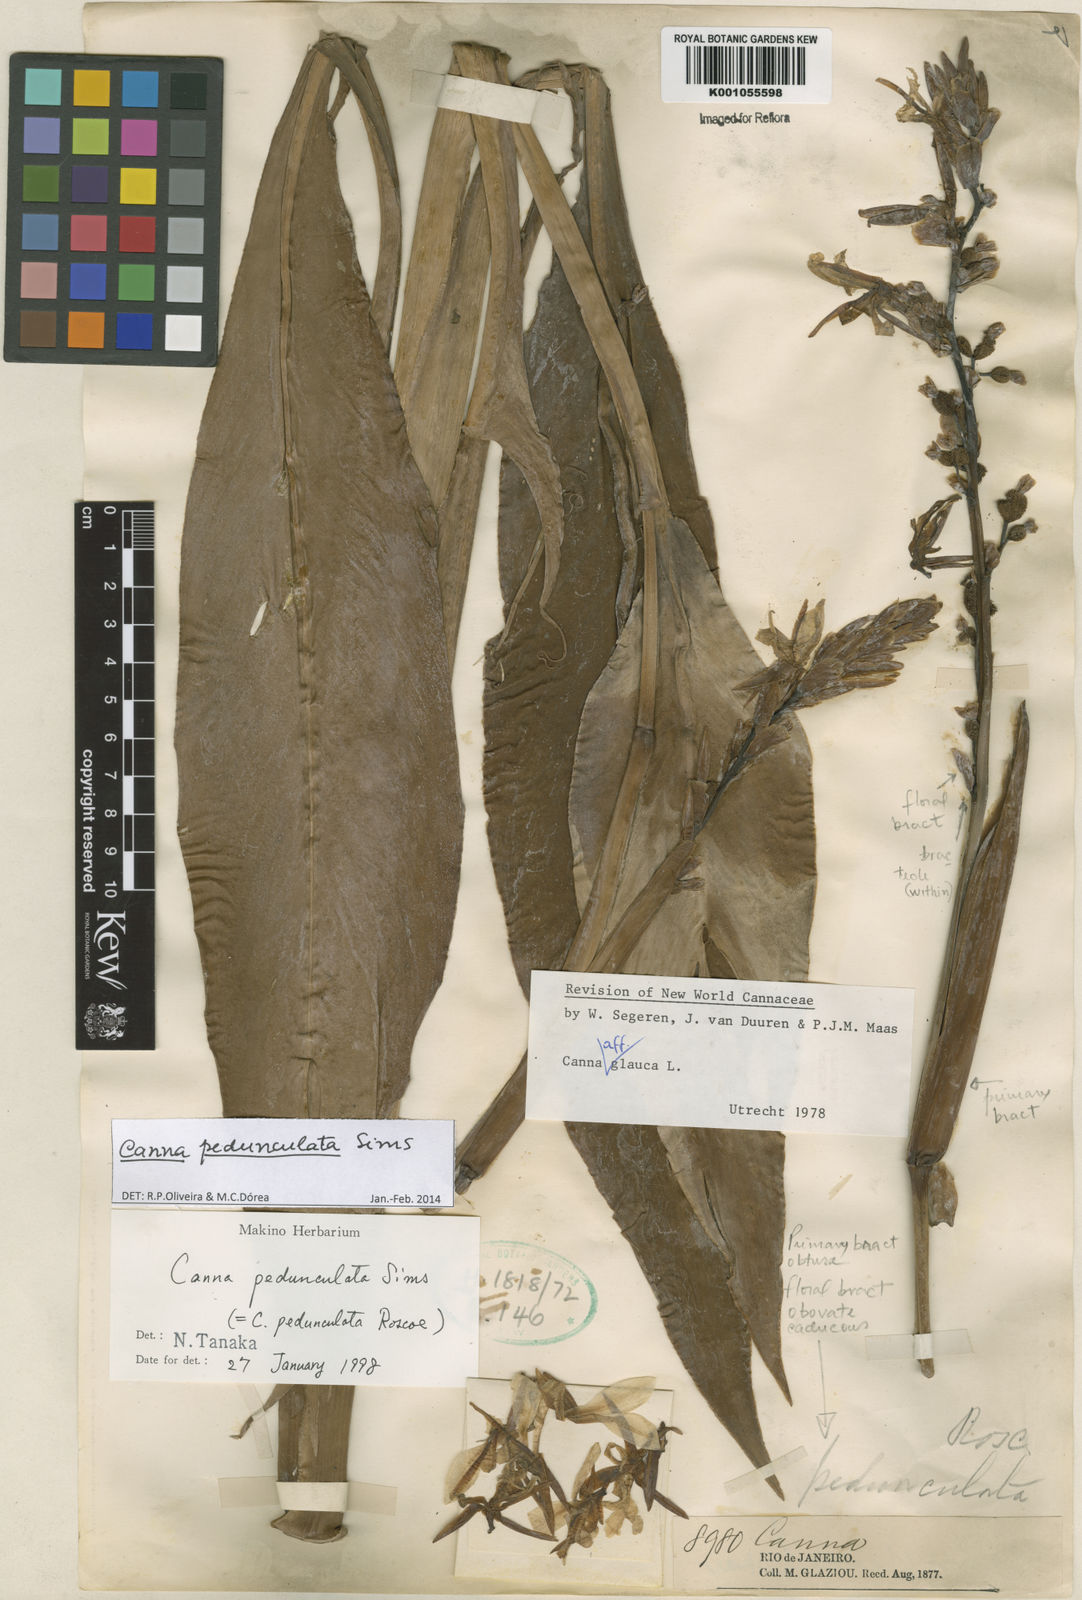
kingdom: Plantae
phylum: Tracheophyta
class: Liliopsida
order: Zingiberales
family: Cannaceae
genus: Canna
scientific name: Canna pedunculata
